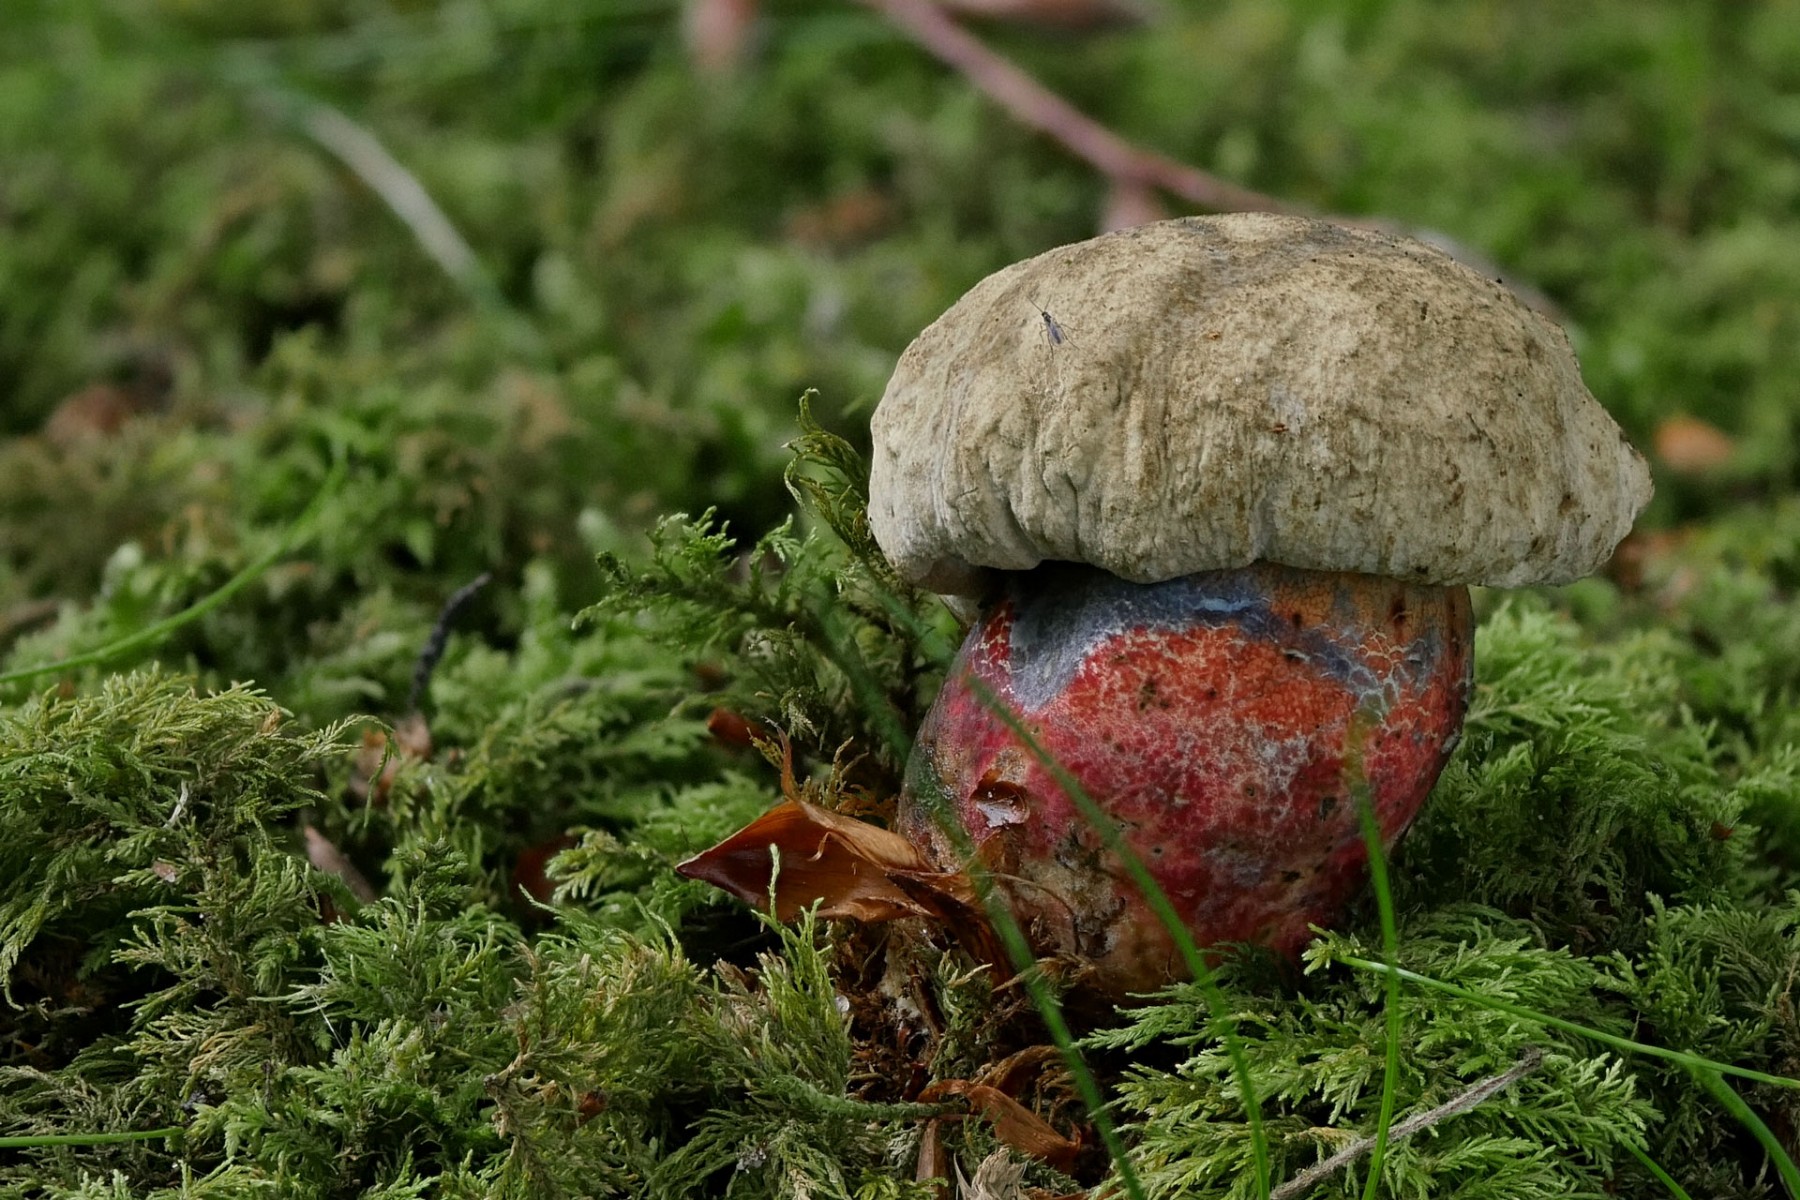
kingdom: Fungi
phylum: Basidiomycota
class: Agaricomycetes
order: Boletales
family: Boletaceae
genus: Caloboletus
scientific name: Caloboletus calopus
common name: skønfodet rørhat
